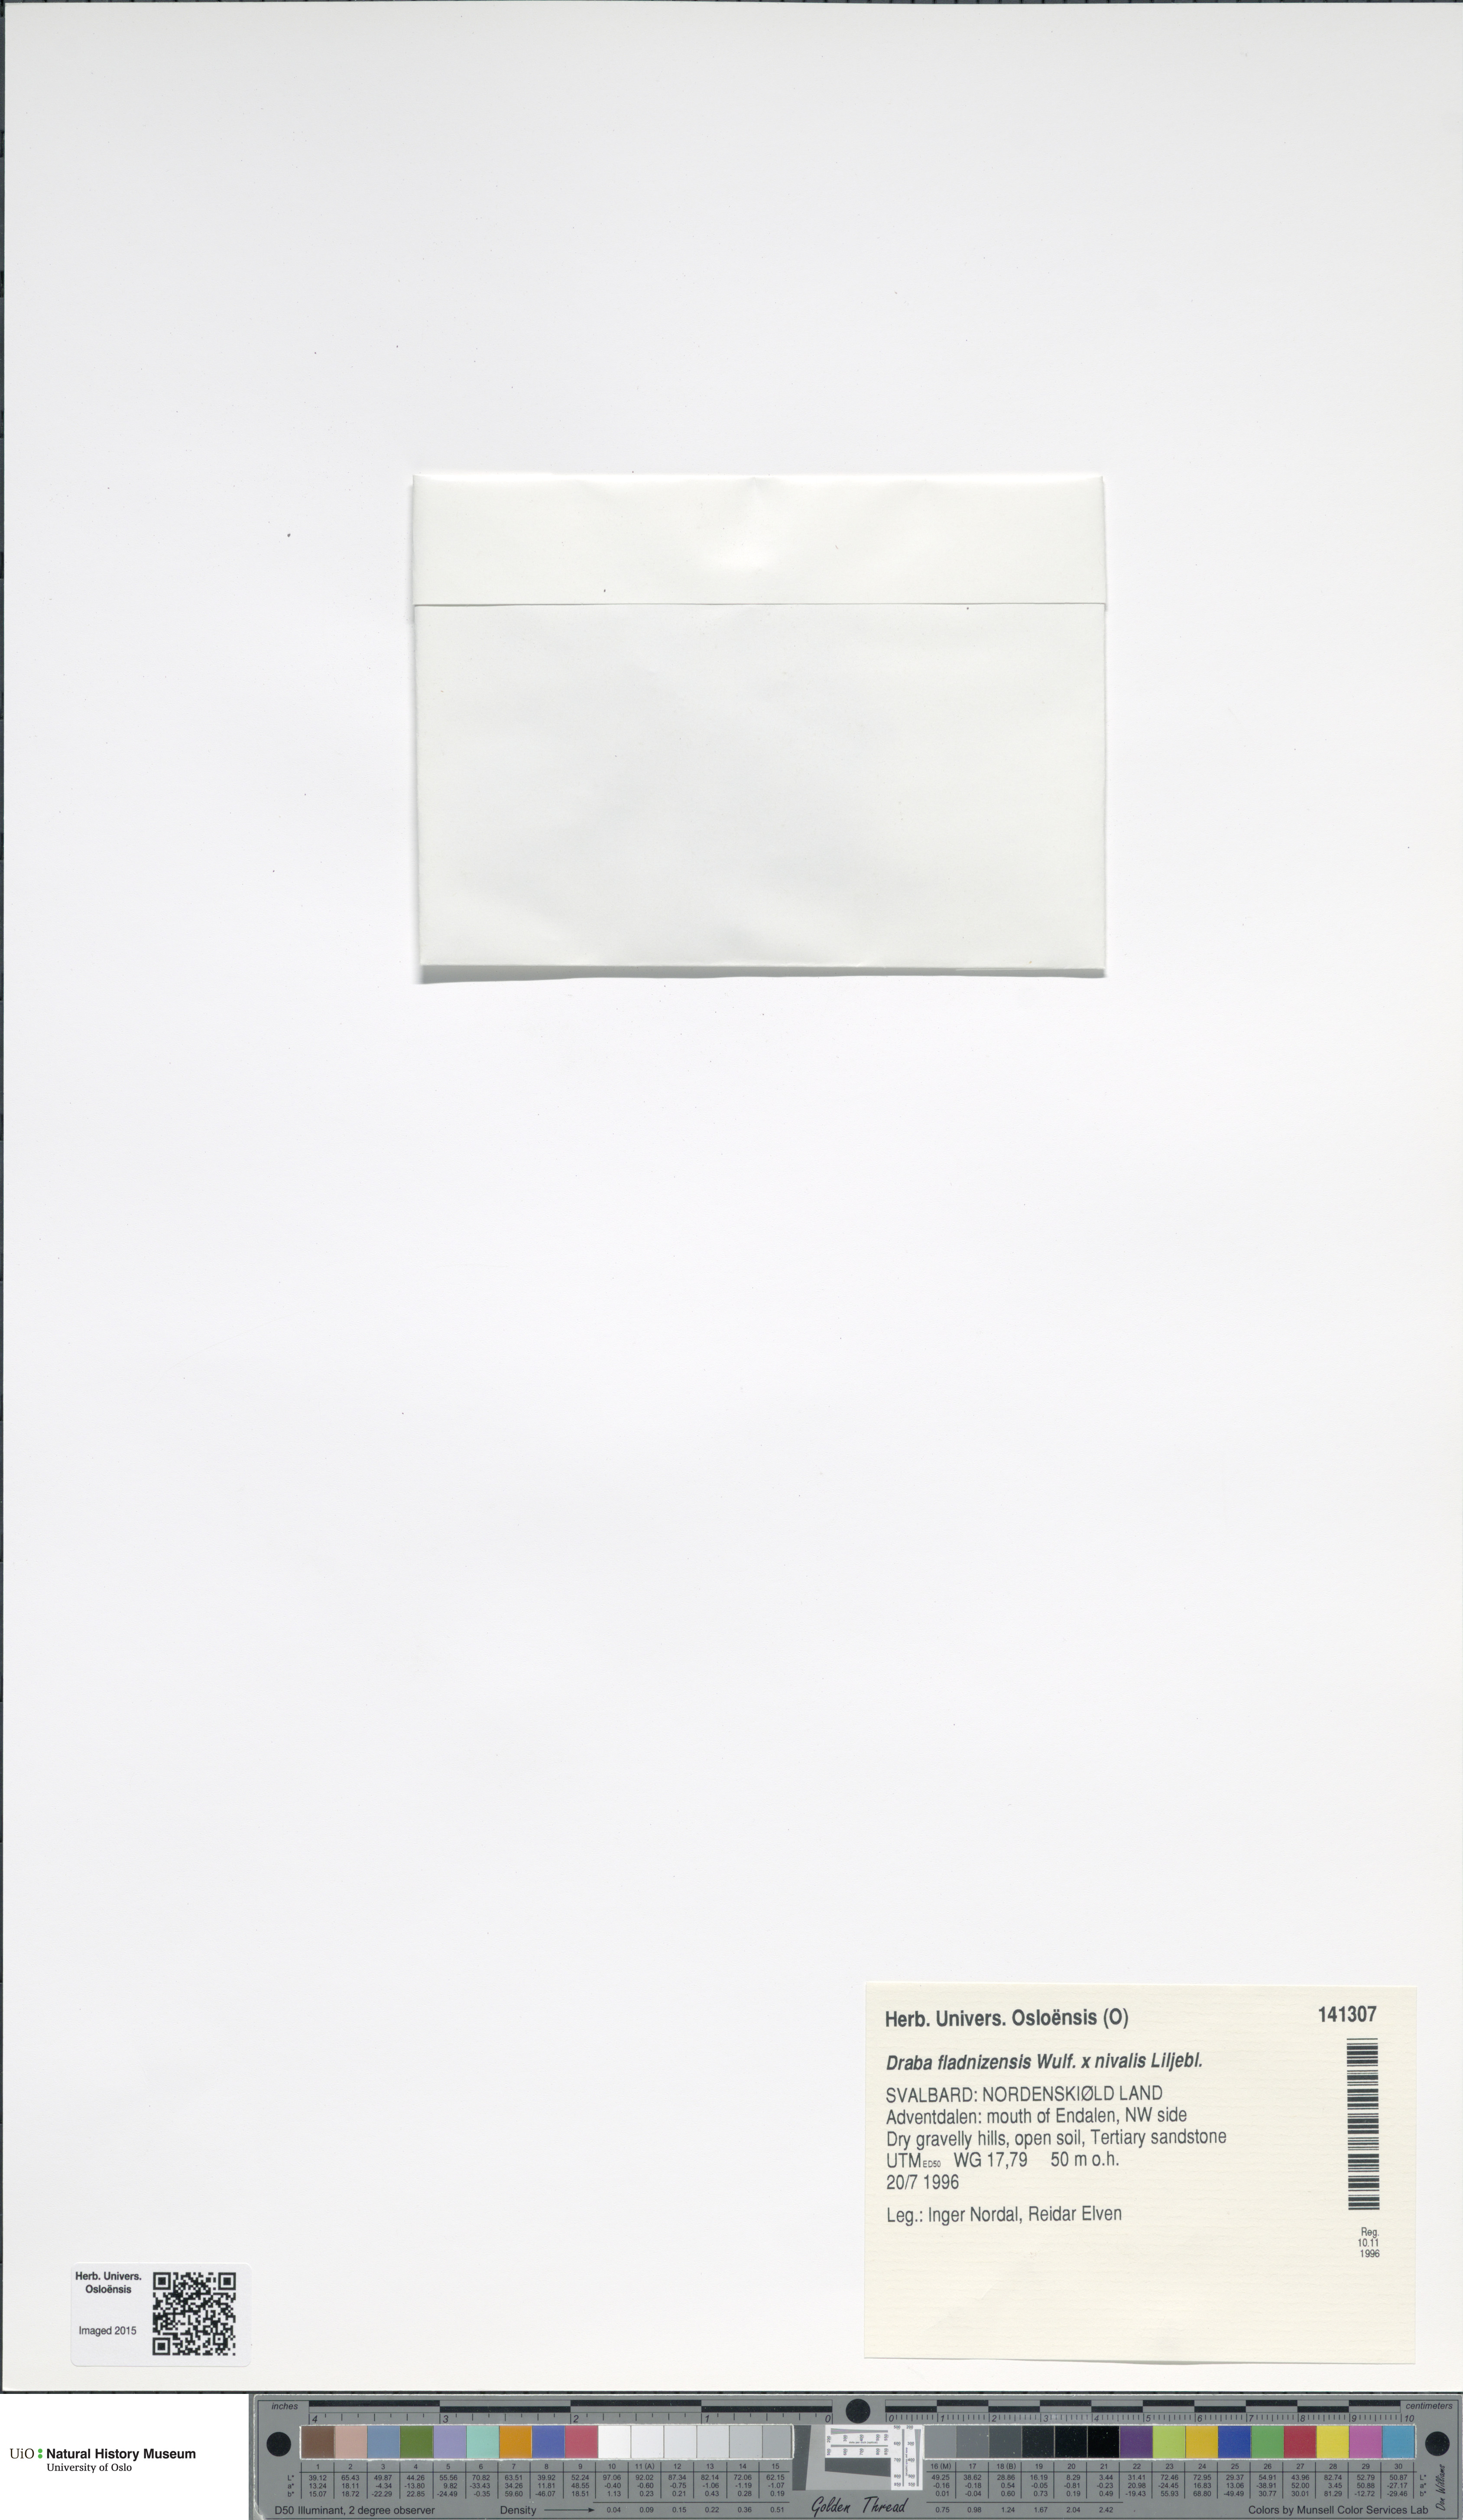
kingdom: Plantae
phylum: Tracheophyta
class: Magnoliopsida
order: Brassicales
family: Brassicaceae
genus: Draba
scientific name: Draba
